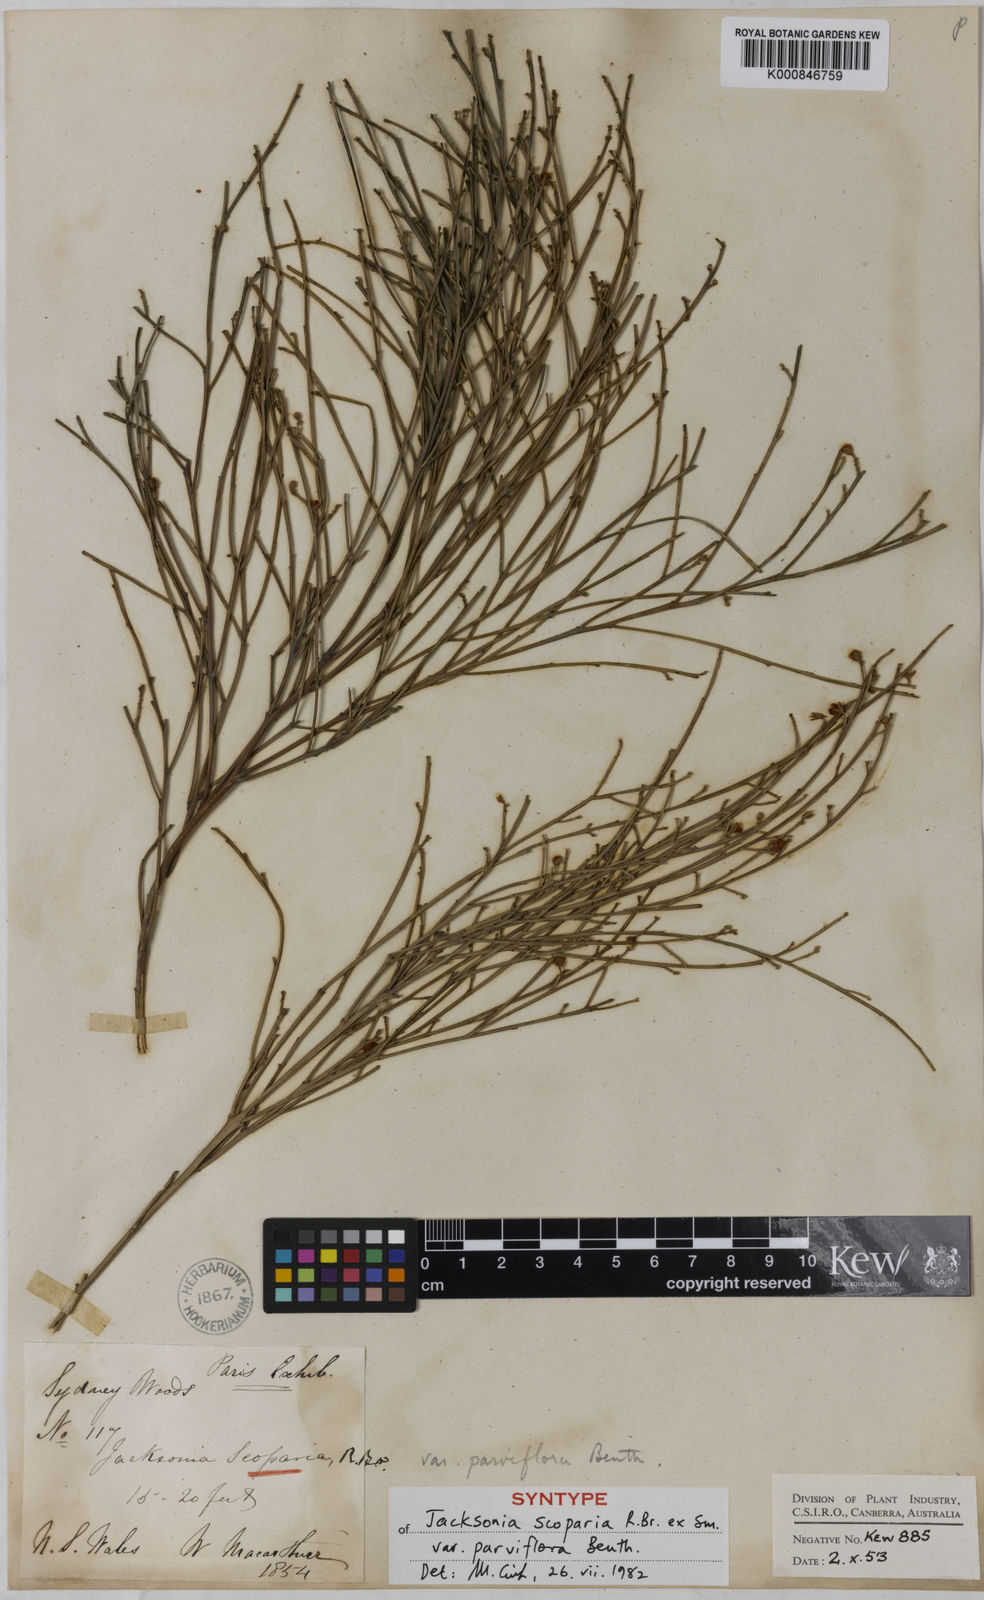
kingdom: Plantae
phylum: Tracheophyta
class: Magnoliopsida
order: Fabales
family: Fabaceae
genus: Jacksonia
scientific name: Jacksonia chappilliae
